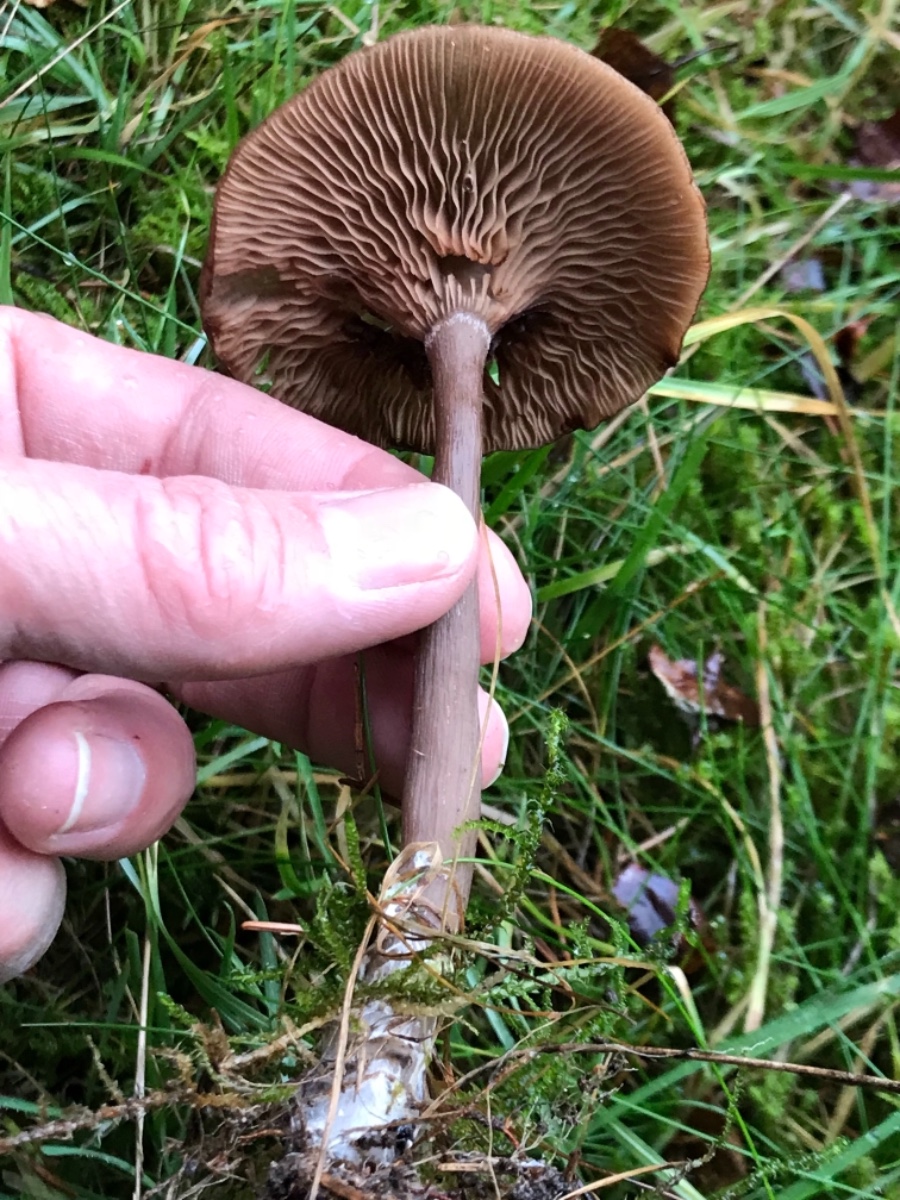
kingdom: Fungi
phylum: Basidiomycota
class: Agaricomycetes
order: Agaricales
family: Pseudoclitocybaceae
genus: Pseudoclitocybe
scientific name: Pseudoclitocybe cyathiformis
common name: almindelig bægertragthat
